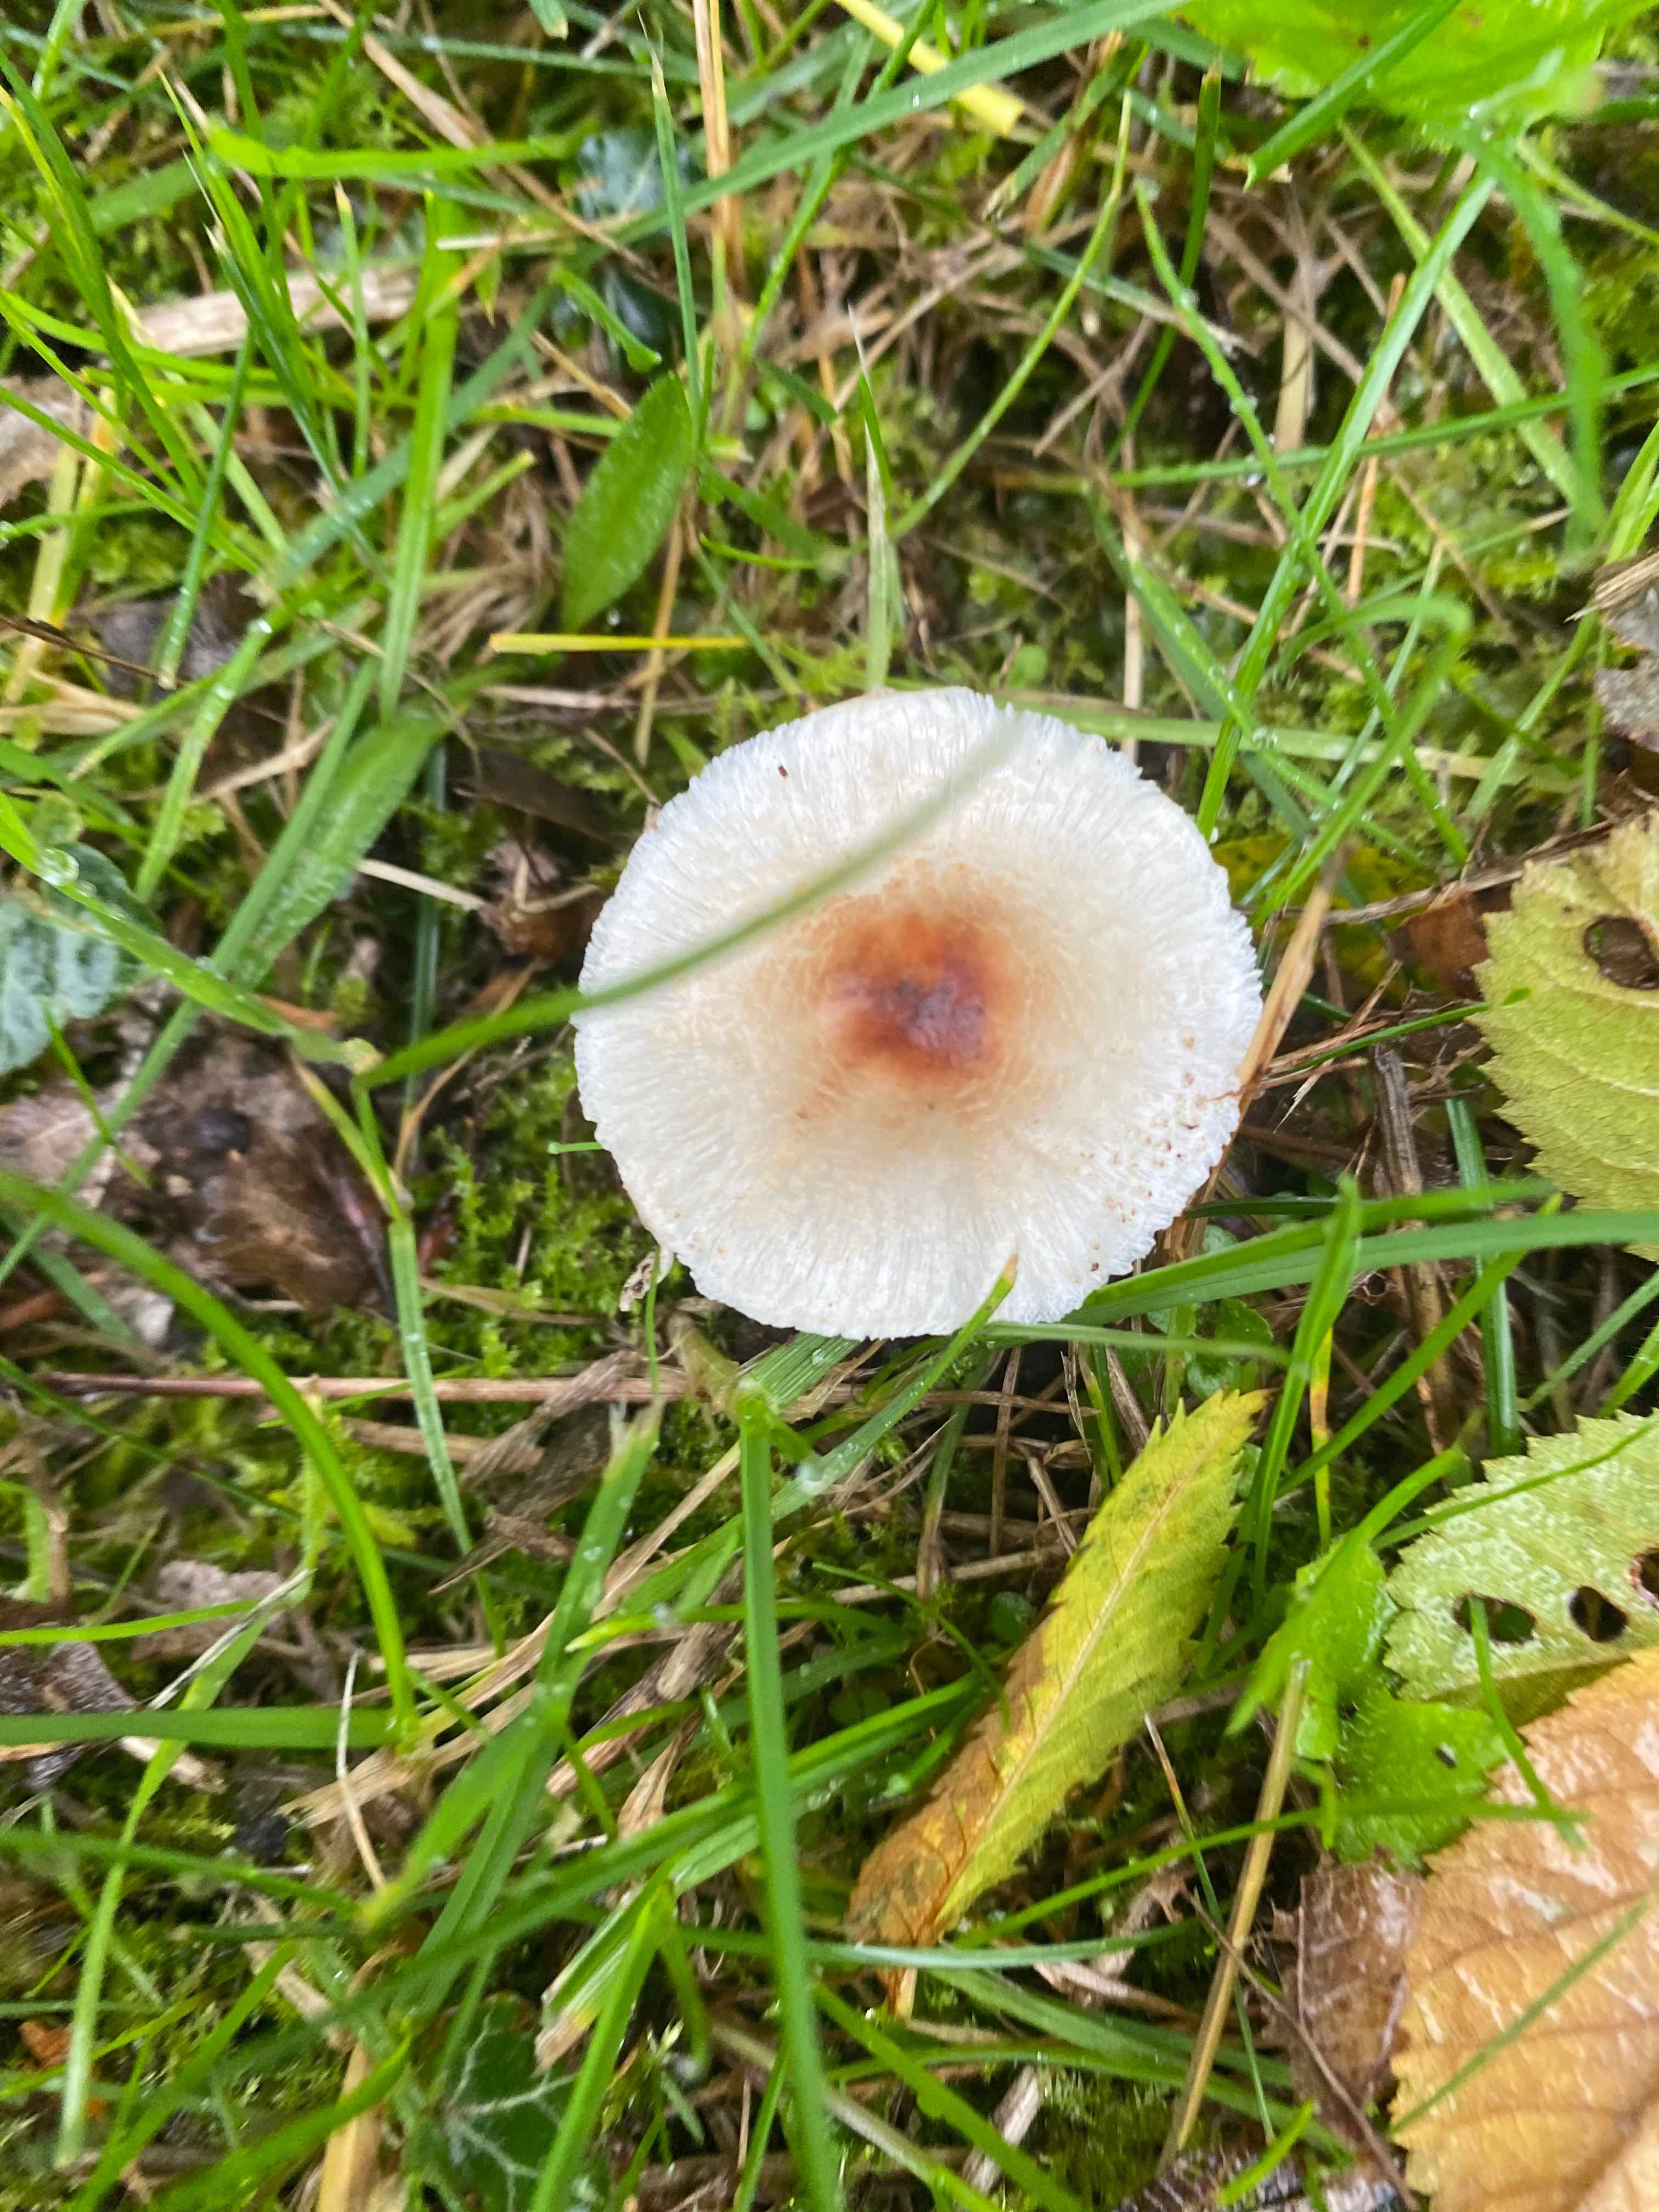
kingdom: Fungi
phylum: Basidiomycota
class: Agaricomycetes
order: Agaricales
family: Agaricaceae
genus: Lepiota
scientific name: Lepiota cristata
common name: stinkende parasolhat
